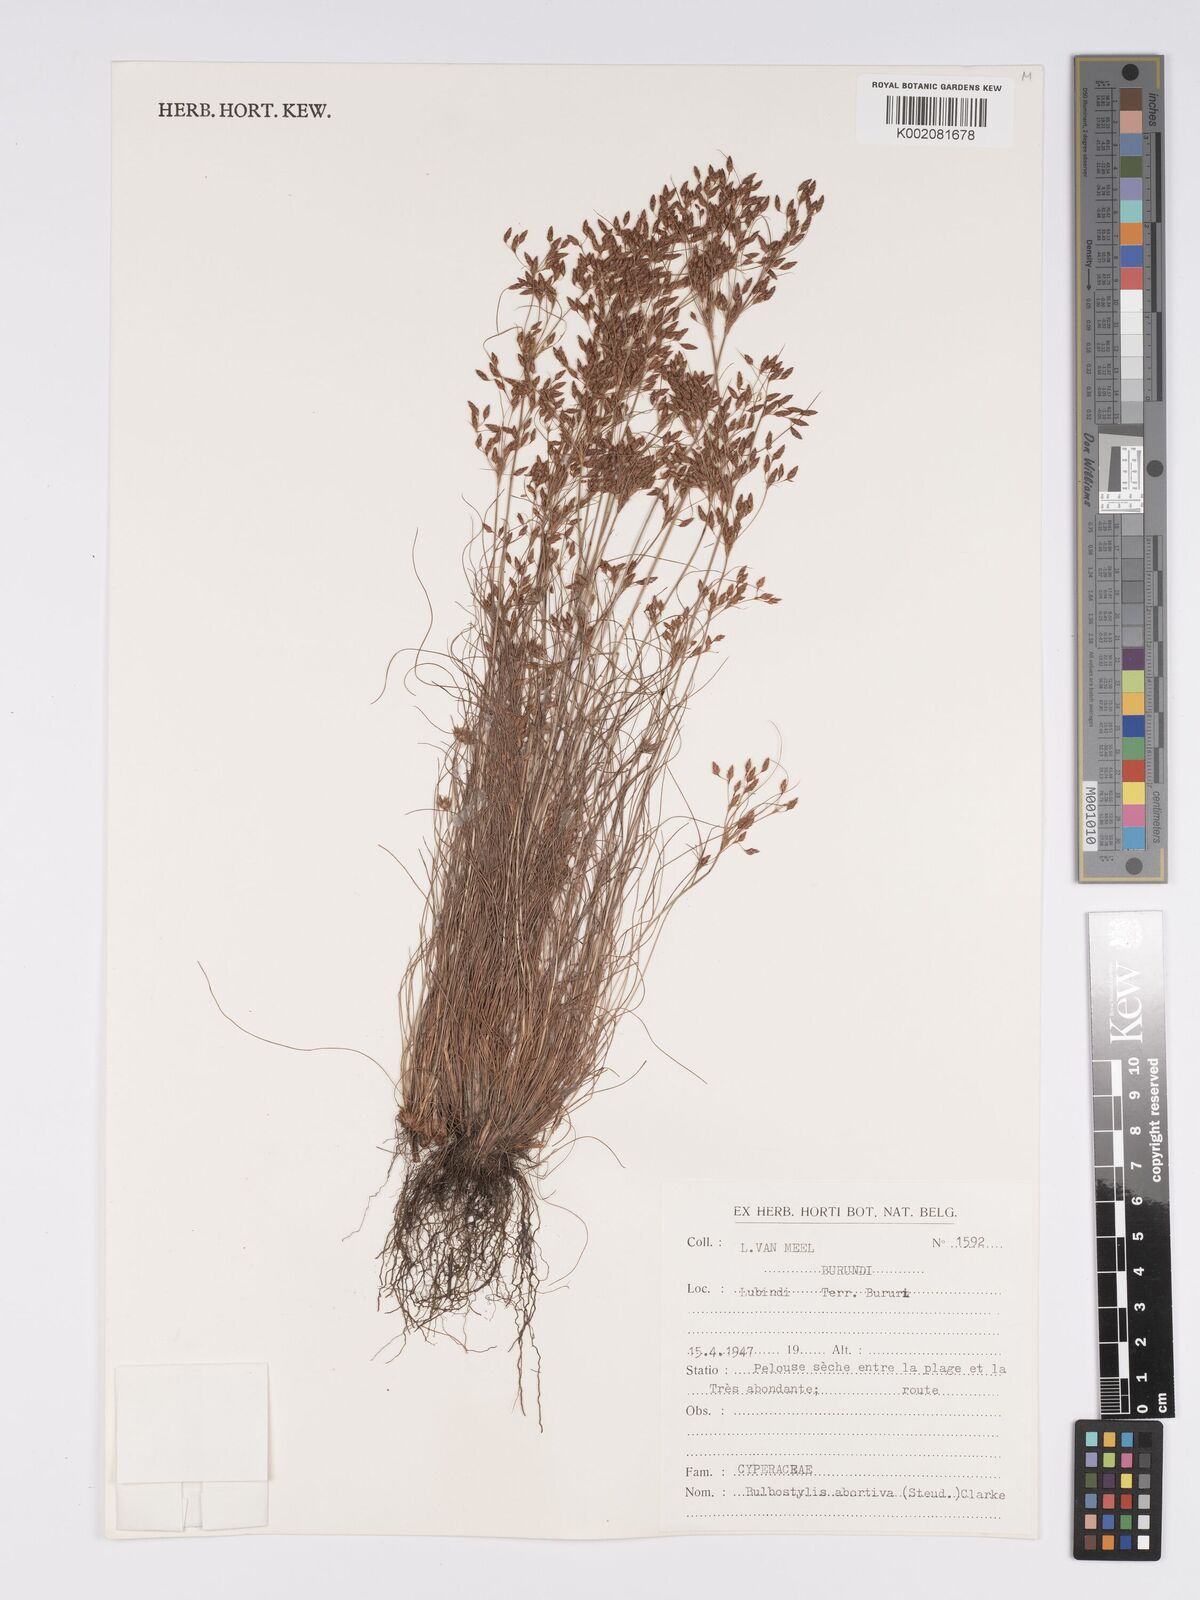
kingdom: Plantae
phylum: Tracheophyta
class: Liliopsida
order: Poales
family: Cyperaceae
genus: Bulbostylis
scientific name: Bulbostylis abortiva
